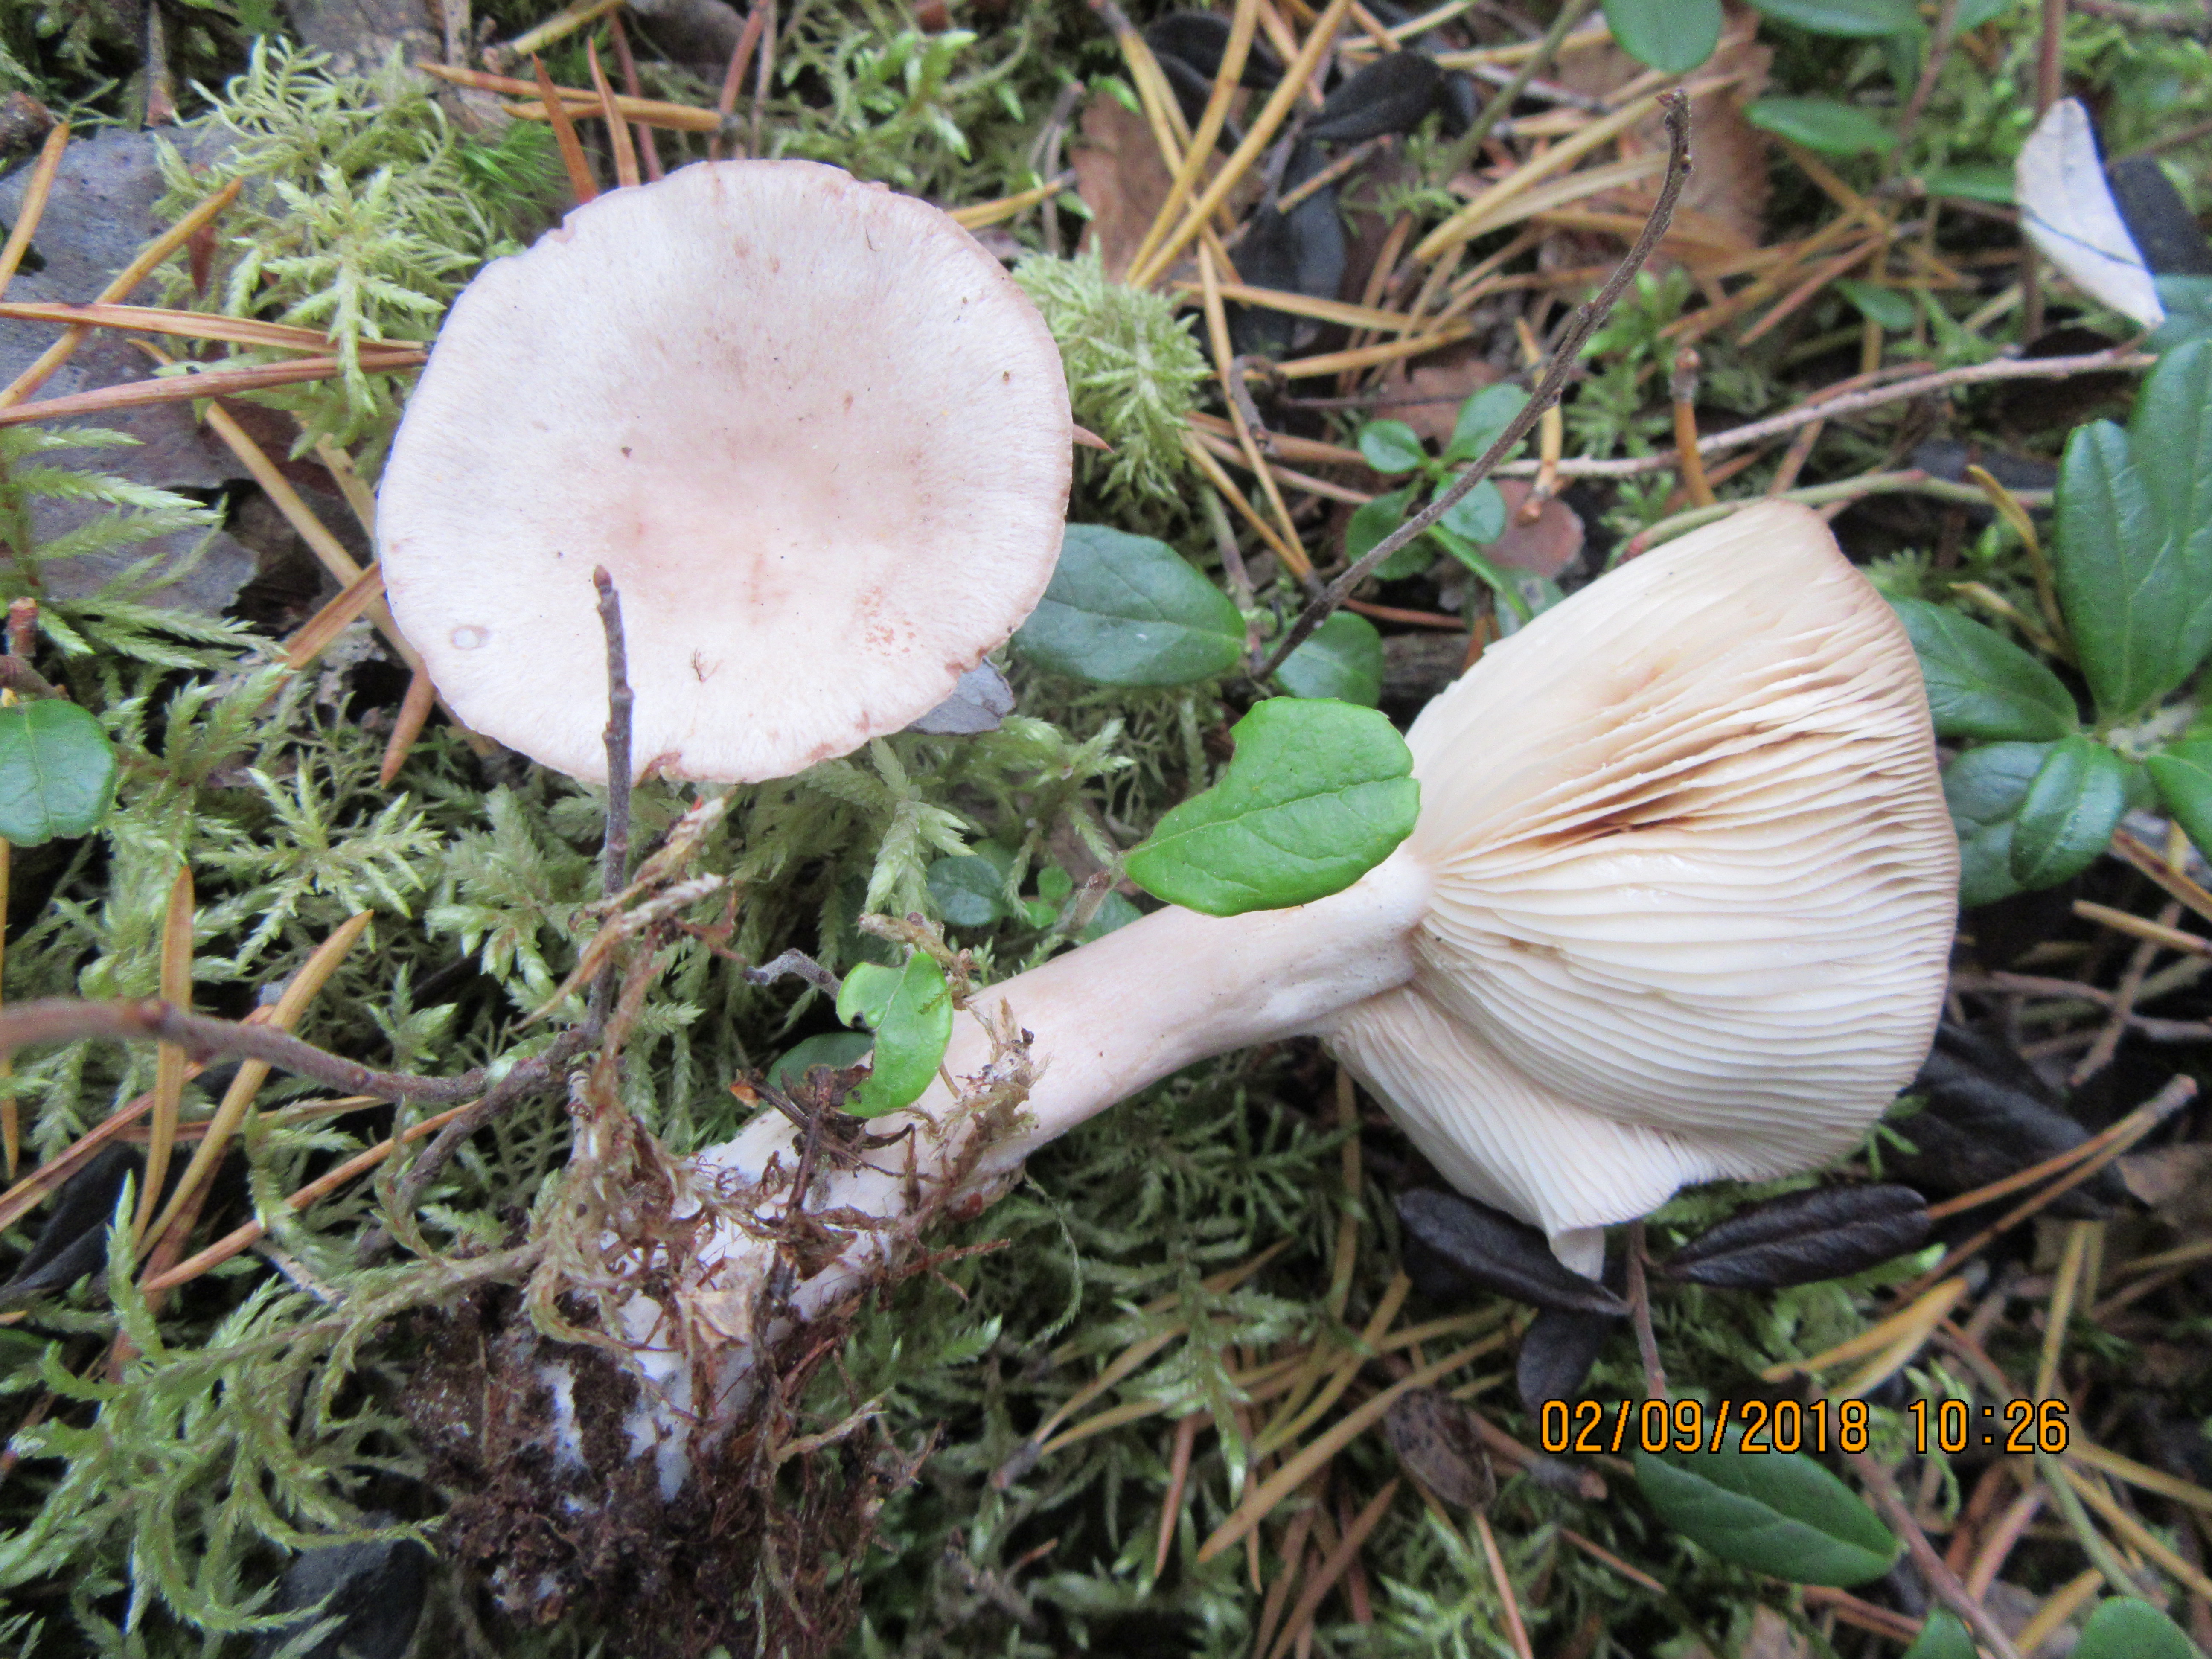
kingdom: Fungi
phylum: Basidiomycota
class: Agaricomycetes
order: Russulales
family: Russulaceae
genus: Lactarius
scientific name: Lactarius vietus
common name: Grey milk-cap
